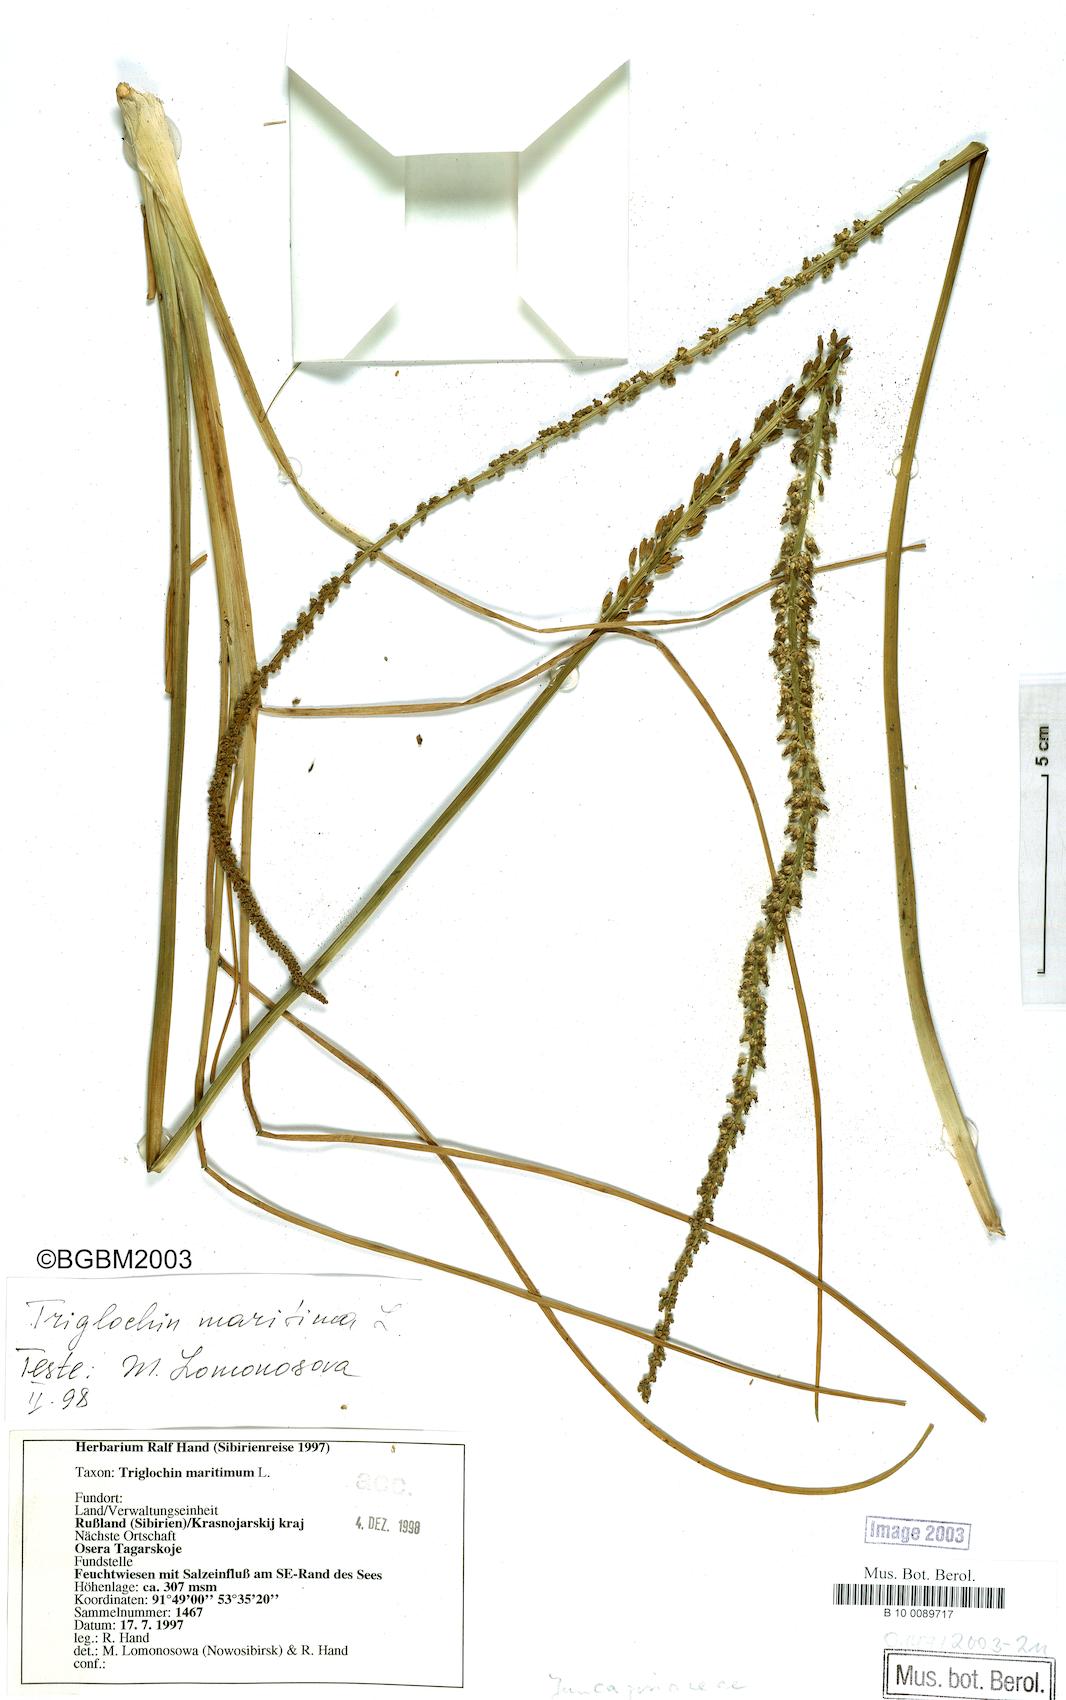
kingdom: Plantae
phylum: Tracheophyta
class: Liliopsida
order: Alismatales
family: Juncaginaceae
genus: Triglochin
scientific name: Triglochin maritima
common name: Sea arrowgrass
